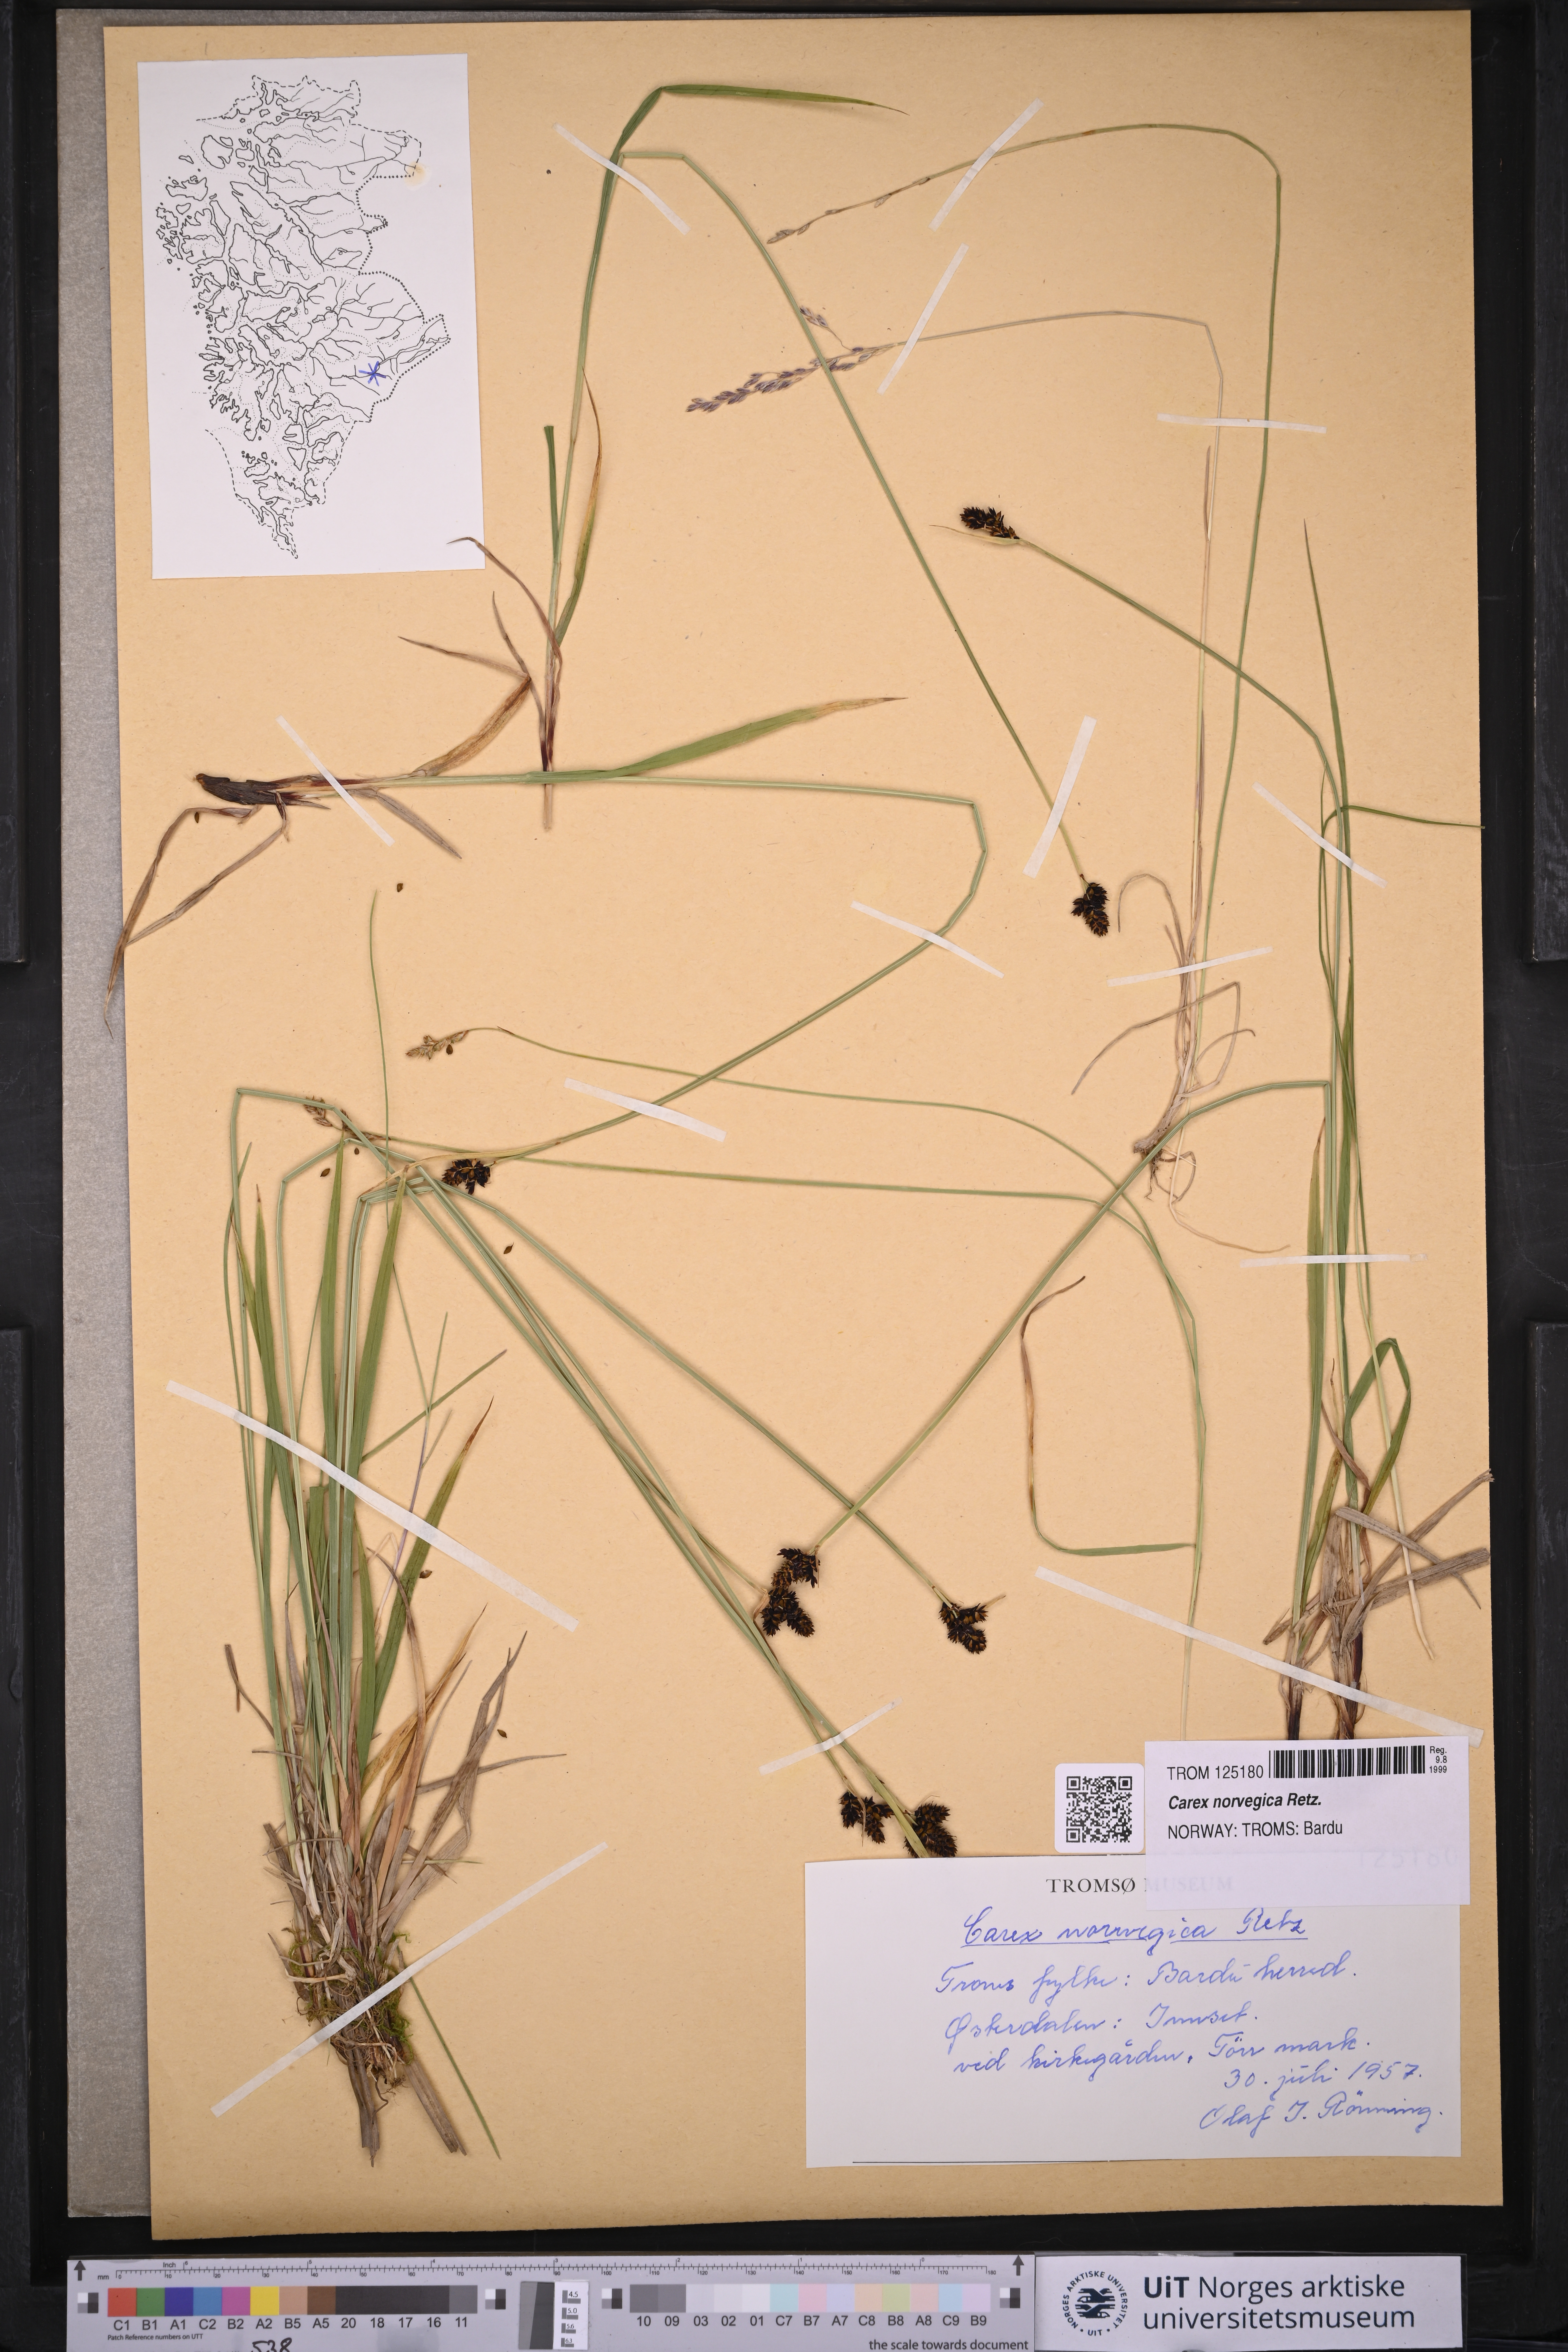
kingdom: Plantae
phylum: Tracheophyta
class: Liliopsida
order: Poales
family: Cyperaceae
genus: Carex
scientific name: Carex norvegica
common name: Close-headed alpine-sedge
